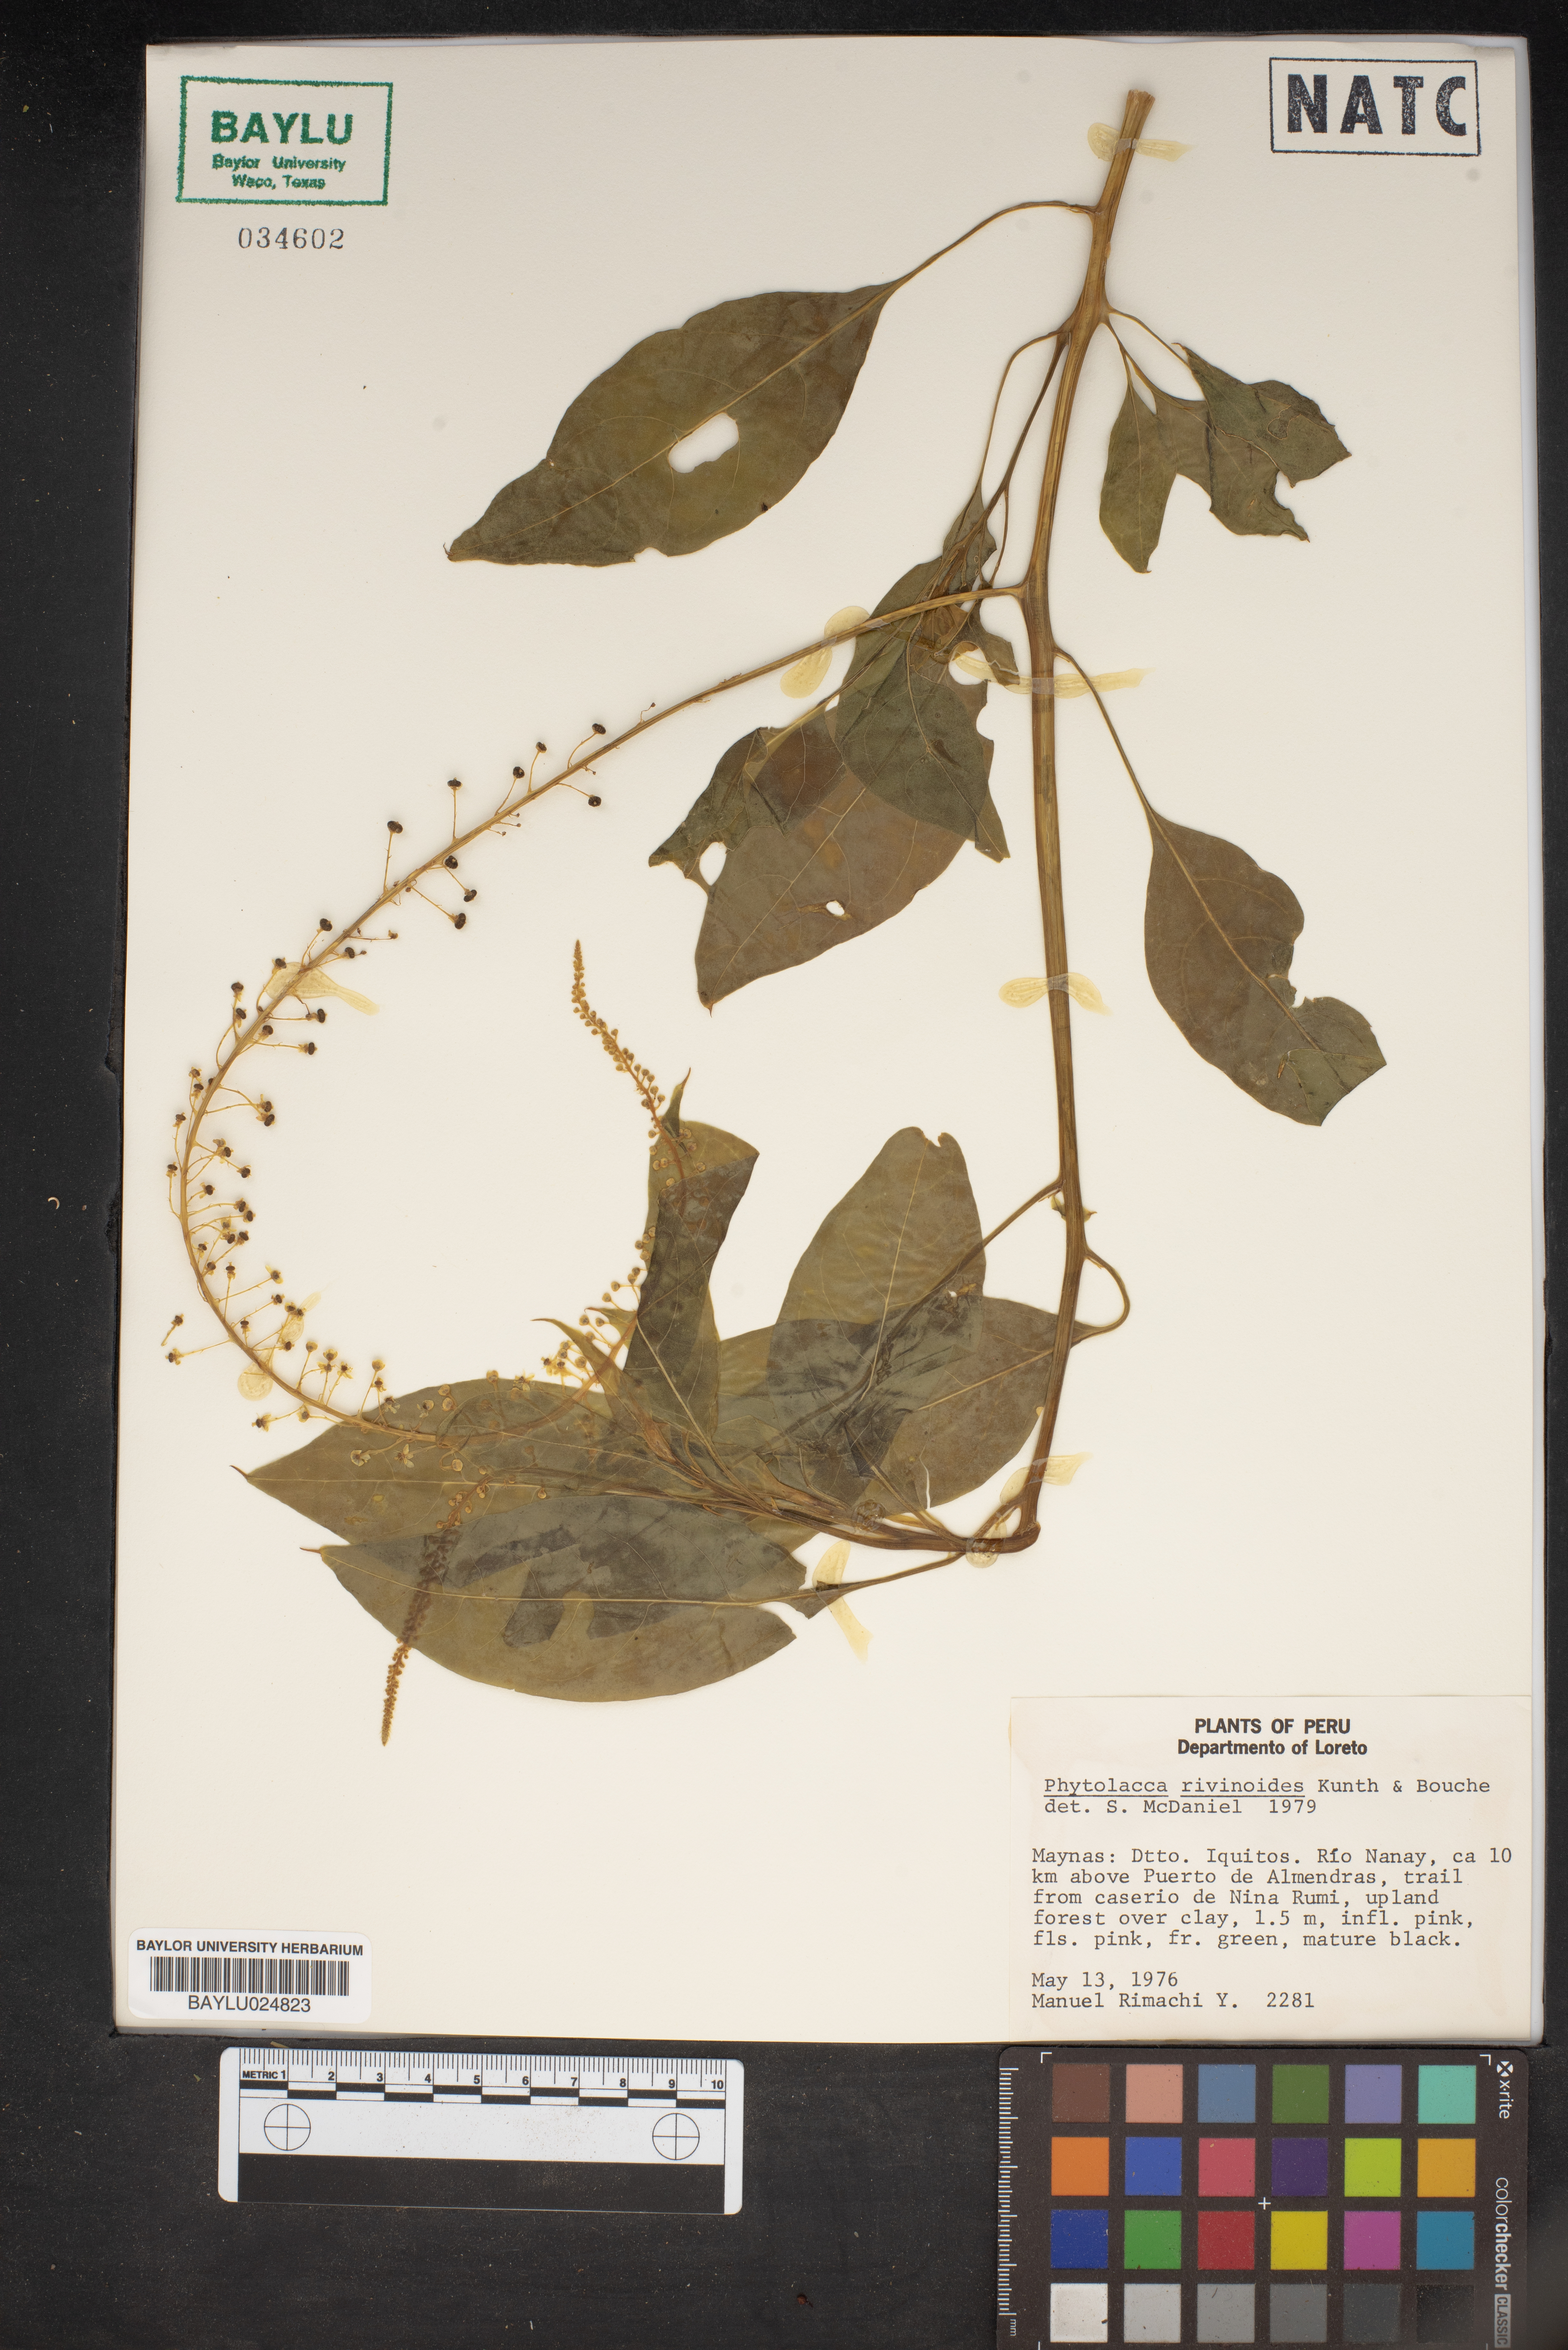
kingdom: Plantae
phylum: Tracheophyta
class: Magnoliopsida
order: Caryophyllales
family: Phytolaccaceae
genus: Phytolacca
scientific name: Phytolacca rivinoides
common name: Venezuelan pokeweed
